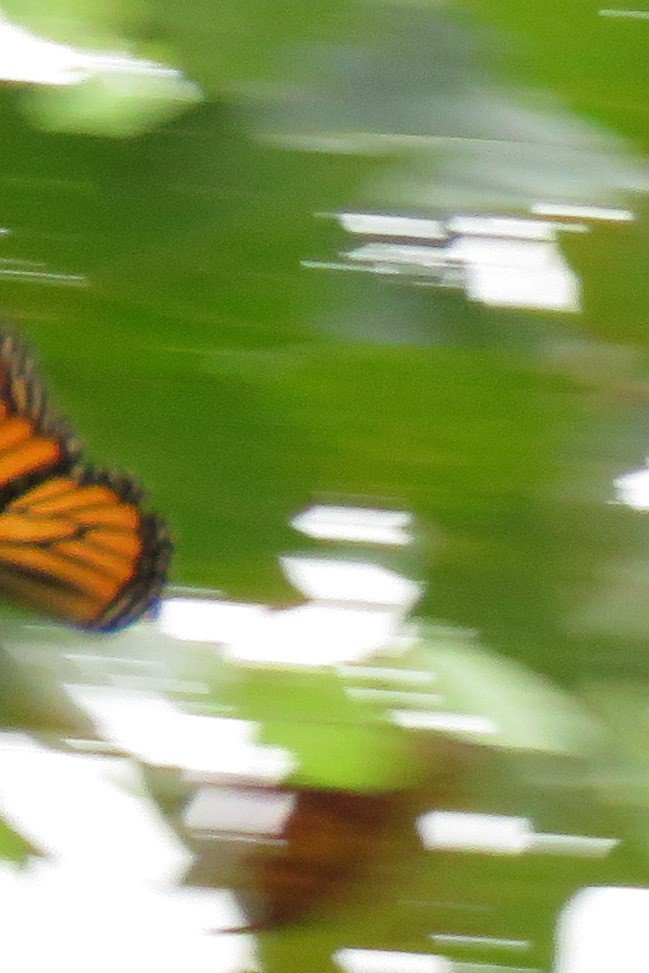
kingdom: Animalia
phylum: Arthropoda
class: Insecta
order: Lepidoptera
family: Nymphalidae
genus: Danaus
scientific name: Danaus plexippus
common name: Monarch
